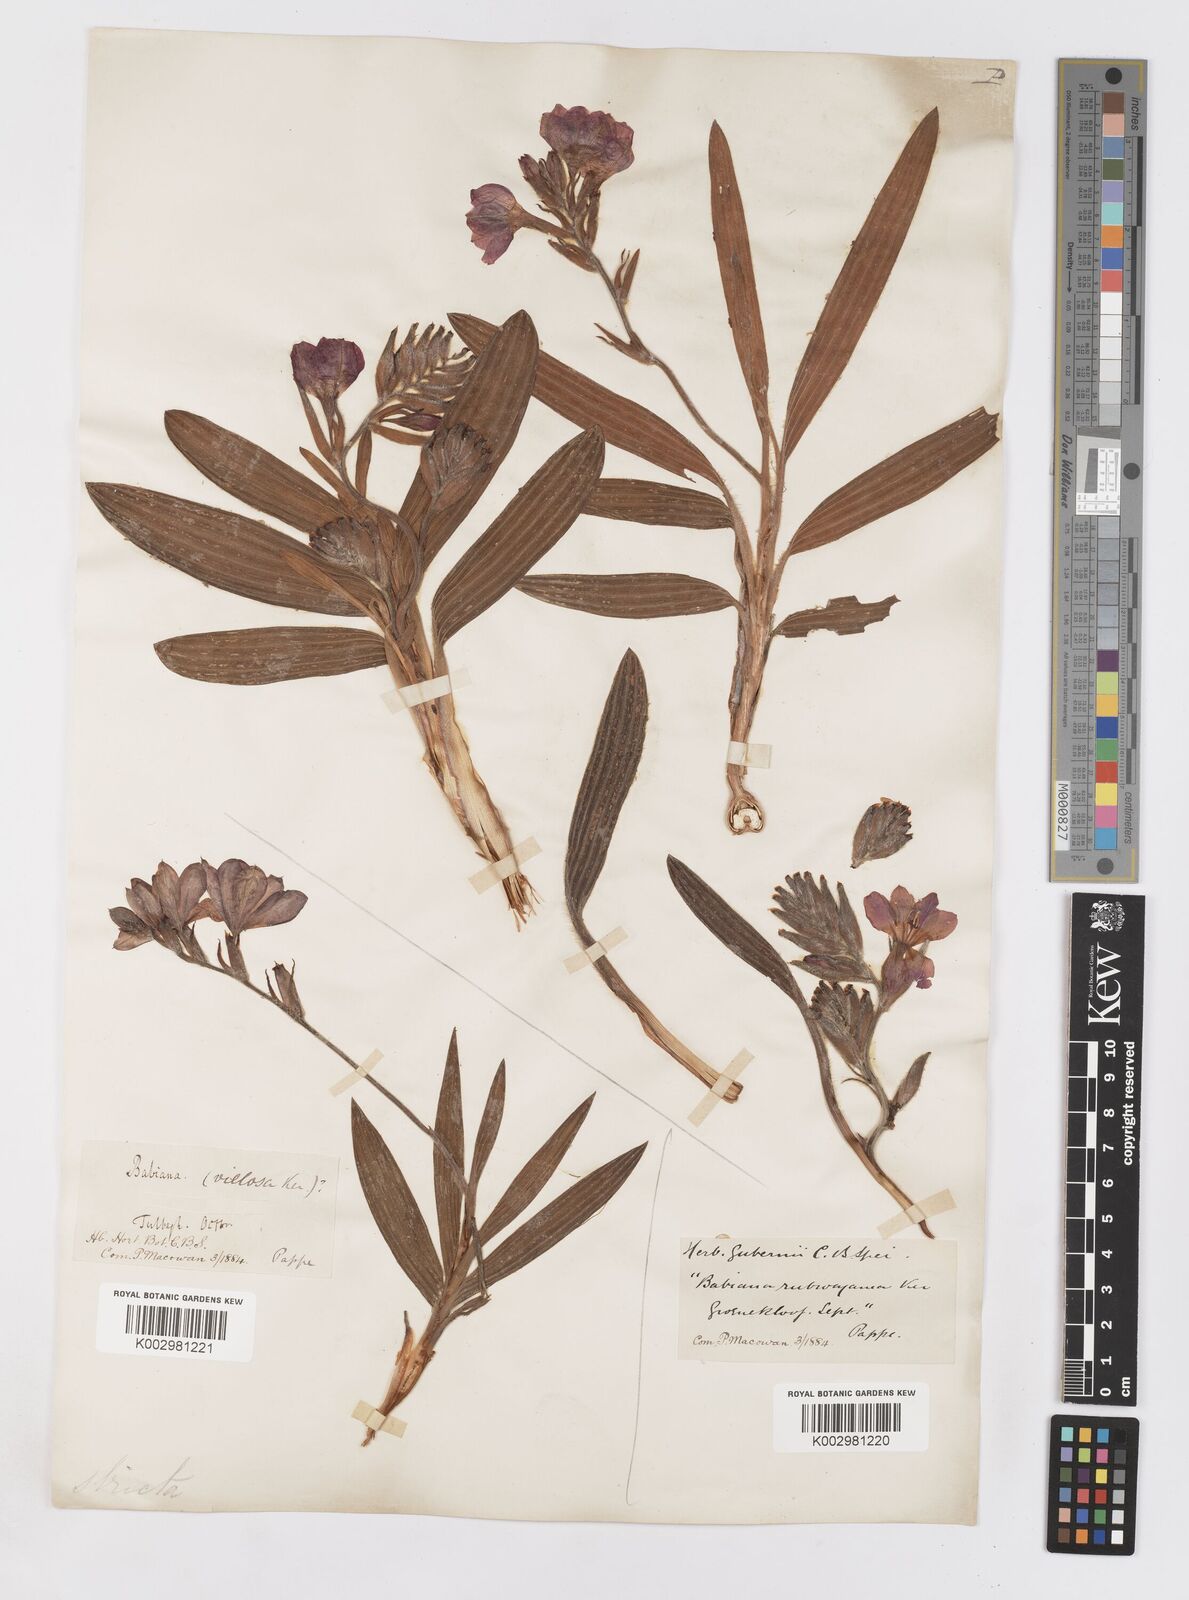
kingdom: Plantae
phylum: Tracheophyta
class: Liliopsida
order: Asparagales
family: Iridaceae
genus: Babiana
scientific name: Babiana rubrocyanea
